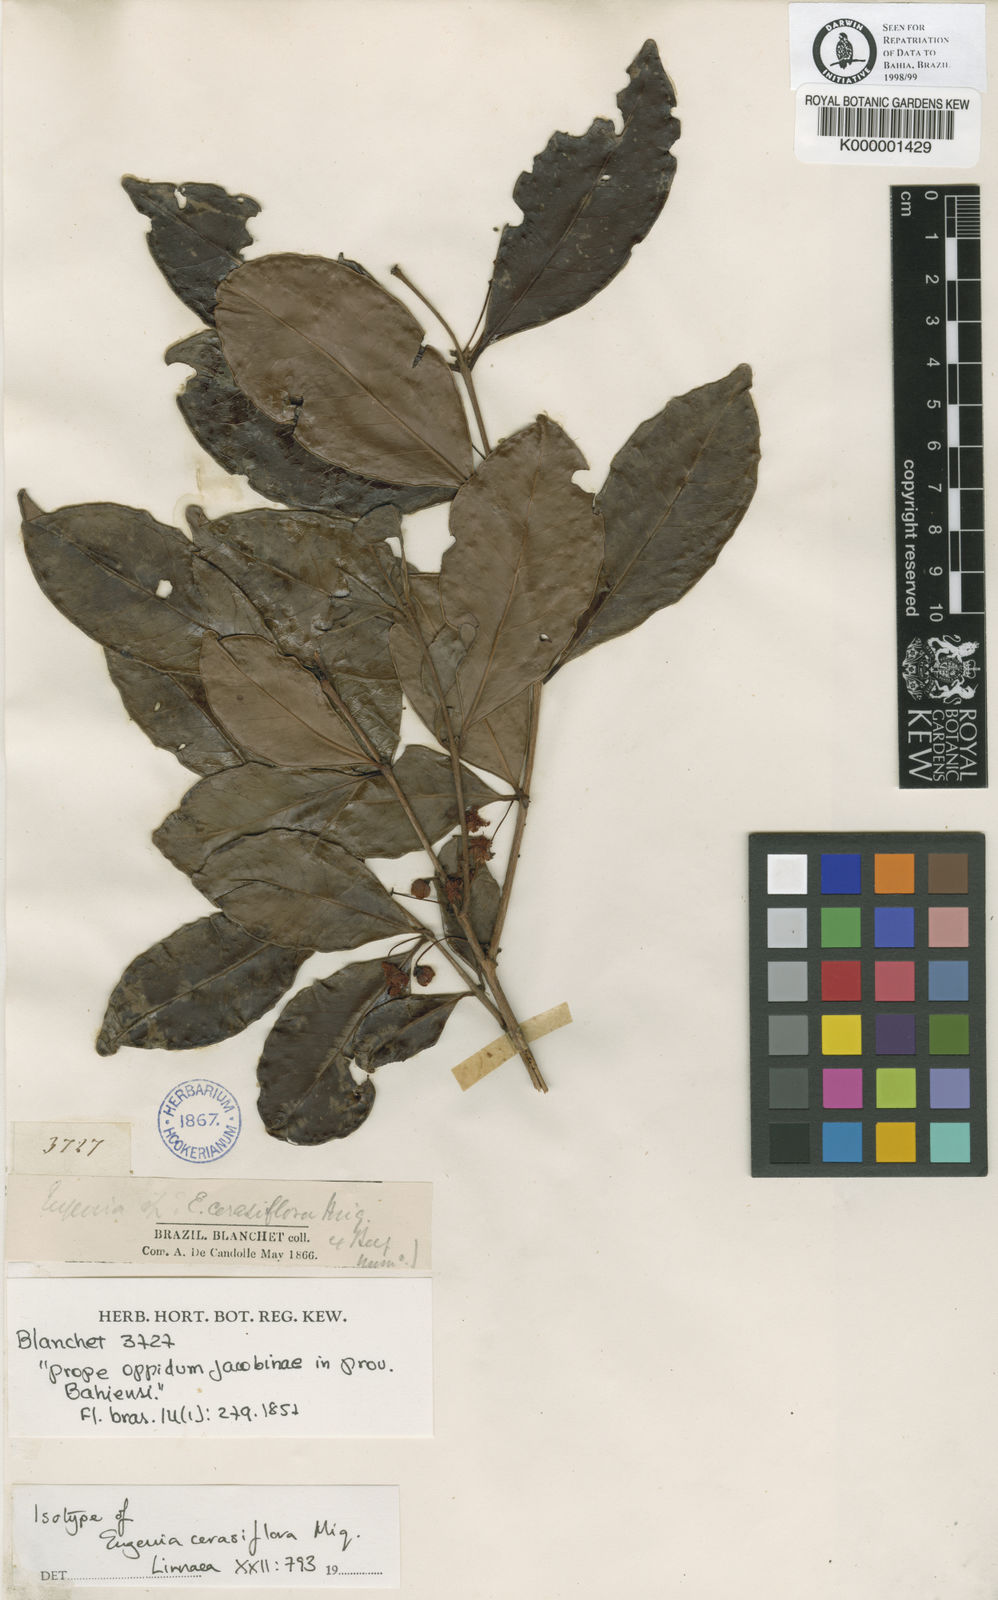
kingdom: Plantae
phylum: Tracheophyta
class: Magnoliopsida
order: Myrtales
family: Myrtaceae
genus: Eugenia
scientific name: Eugenia cerasiflora
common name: Cherry-of-the-rio-grande
